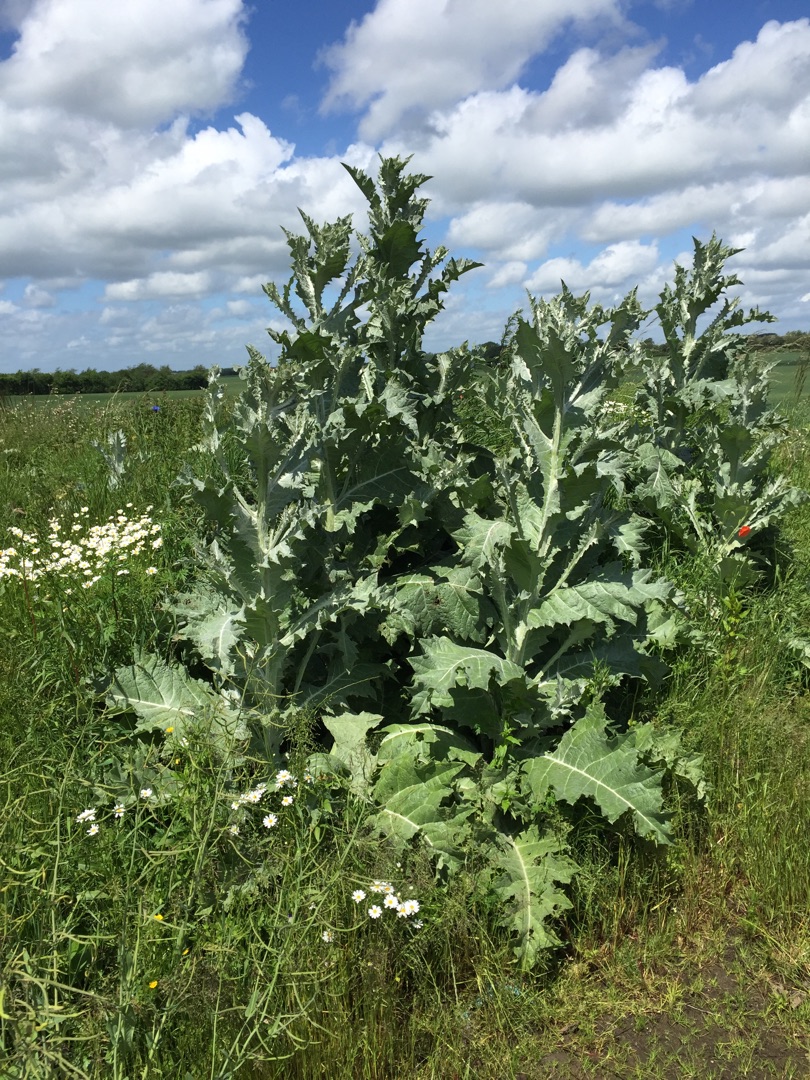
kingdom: Plantae
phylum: Tracheophyta
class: Magnoliopsida
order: Asterales
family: Asteraceae
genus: Onopordum
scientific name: Onopordum acanthium
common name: Æselfoder
